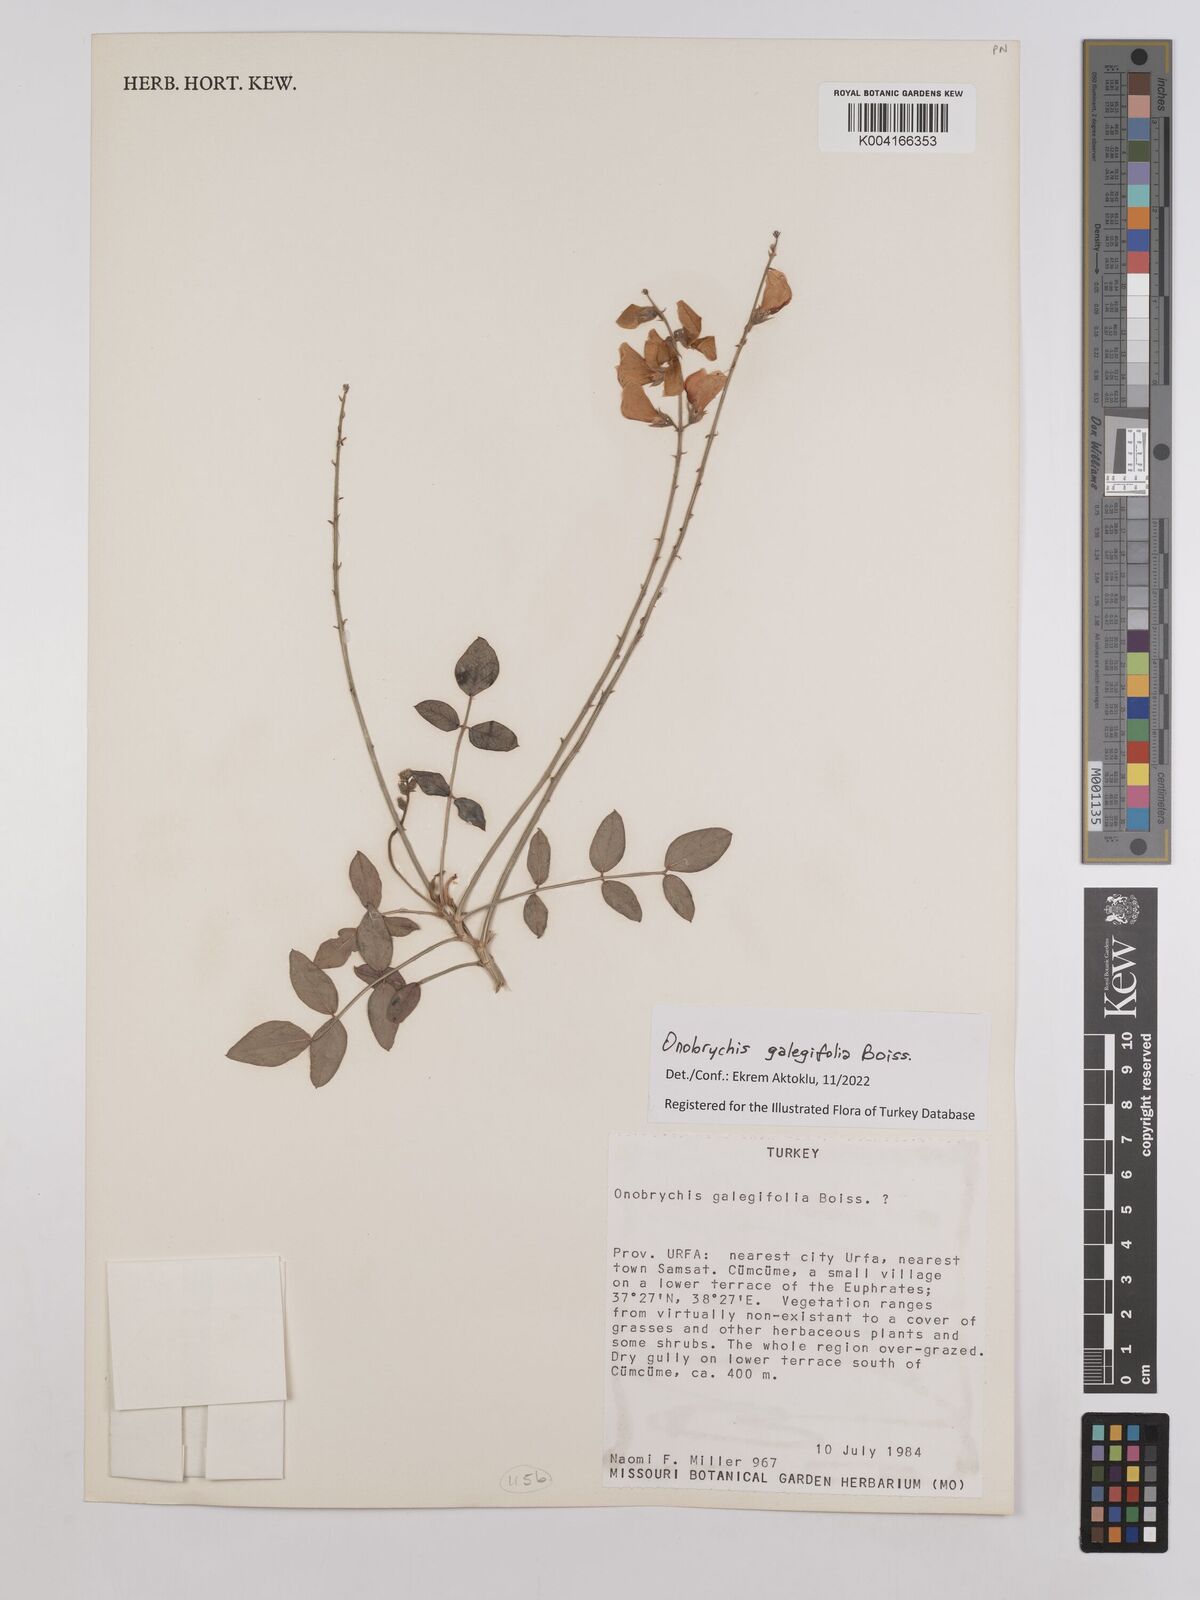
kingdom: Plantae
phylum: Tracheophyta
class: Magnoliopsida
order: Fabales
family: Fabaceae
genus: Onobrychis
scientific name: Onobrychis galegifolia
